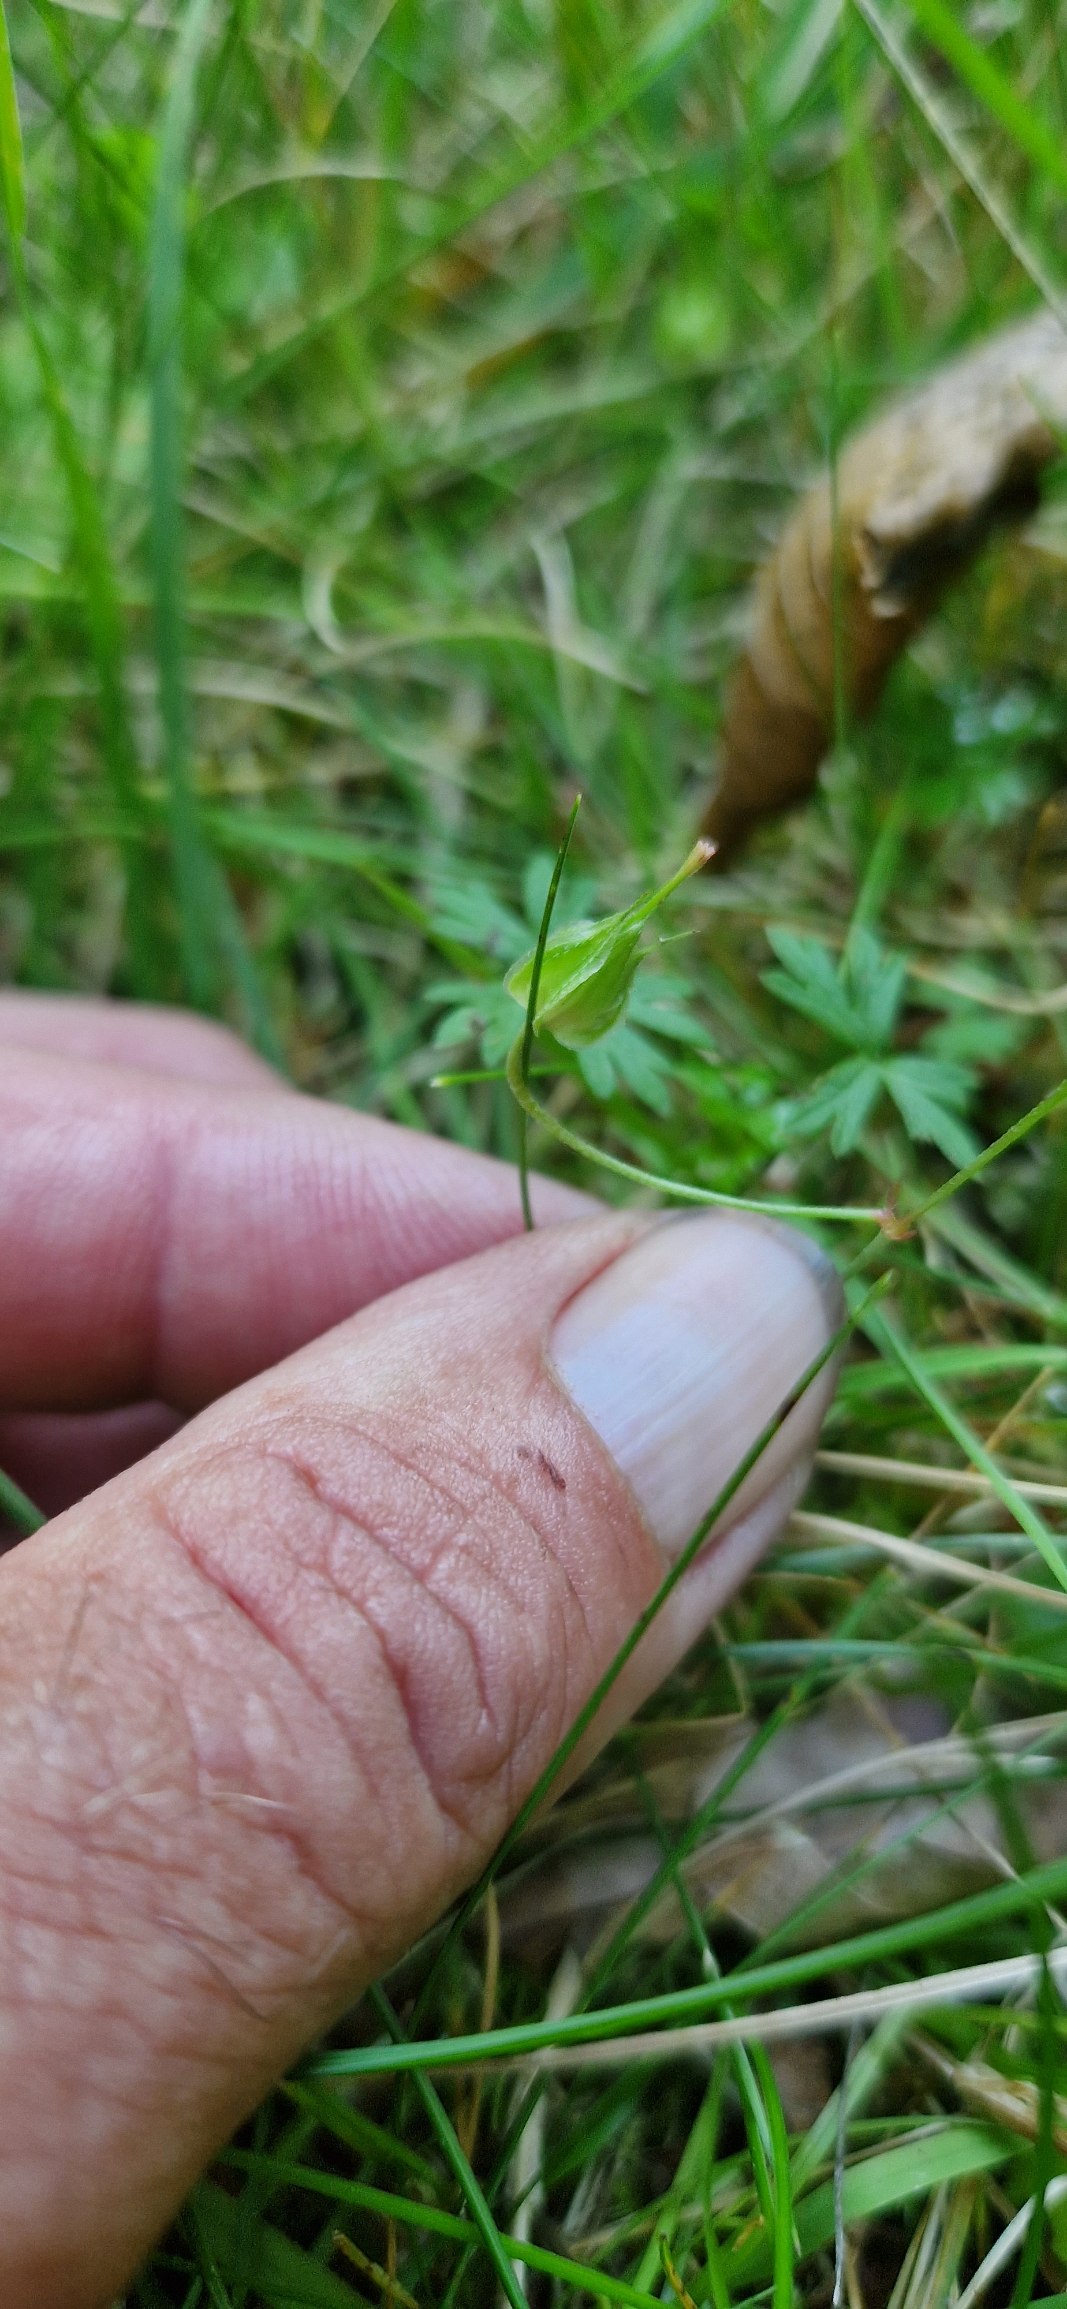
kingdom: Plantae
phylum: Tracheophyta
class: Magnoliopsida
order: Geraniales
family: Geraniaceae
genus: Geranium
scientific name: Geranium columbinum
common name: Storbægret storkenæb
